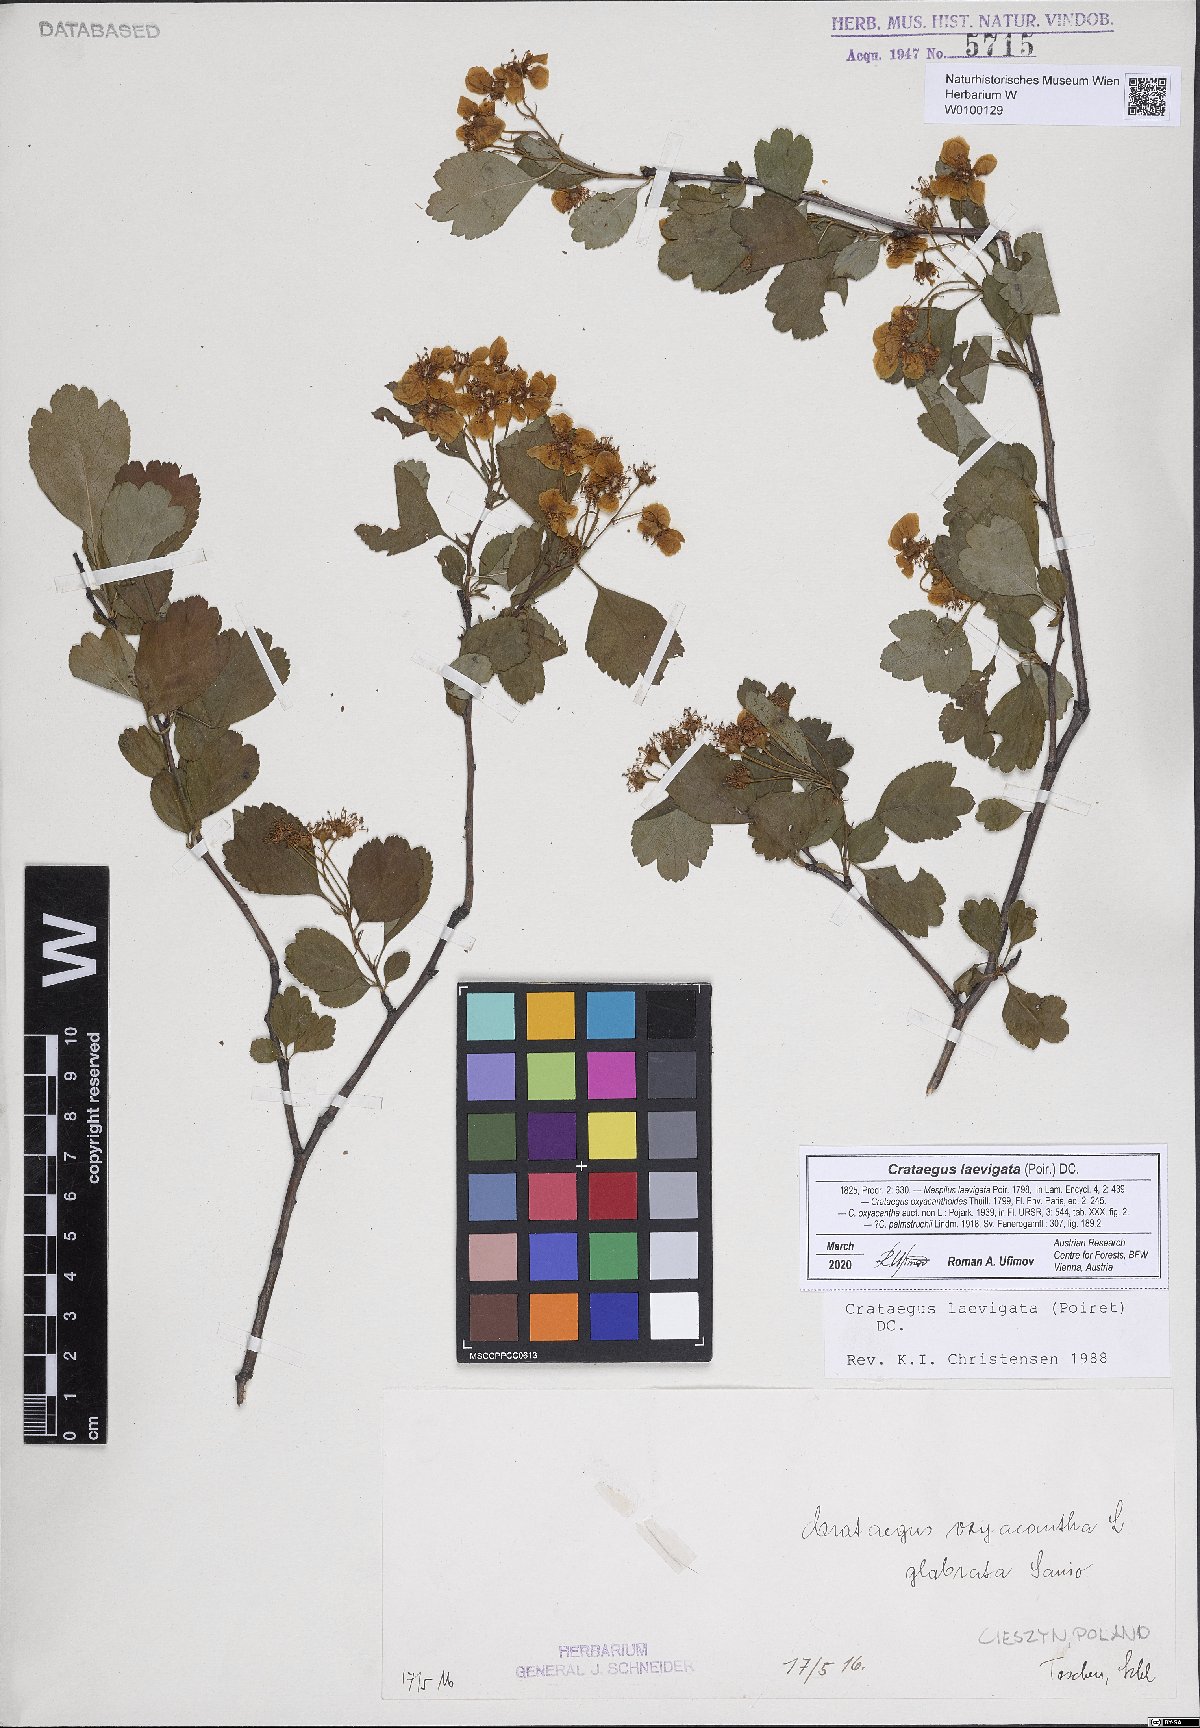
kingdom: Plantae
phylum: Tracheophyta
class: Magnoliopsida
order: Rosales
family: Rosaceae
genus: Crataegus
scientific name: Crataegus laevigata
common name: Midland hawthorn
